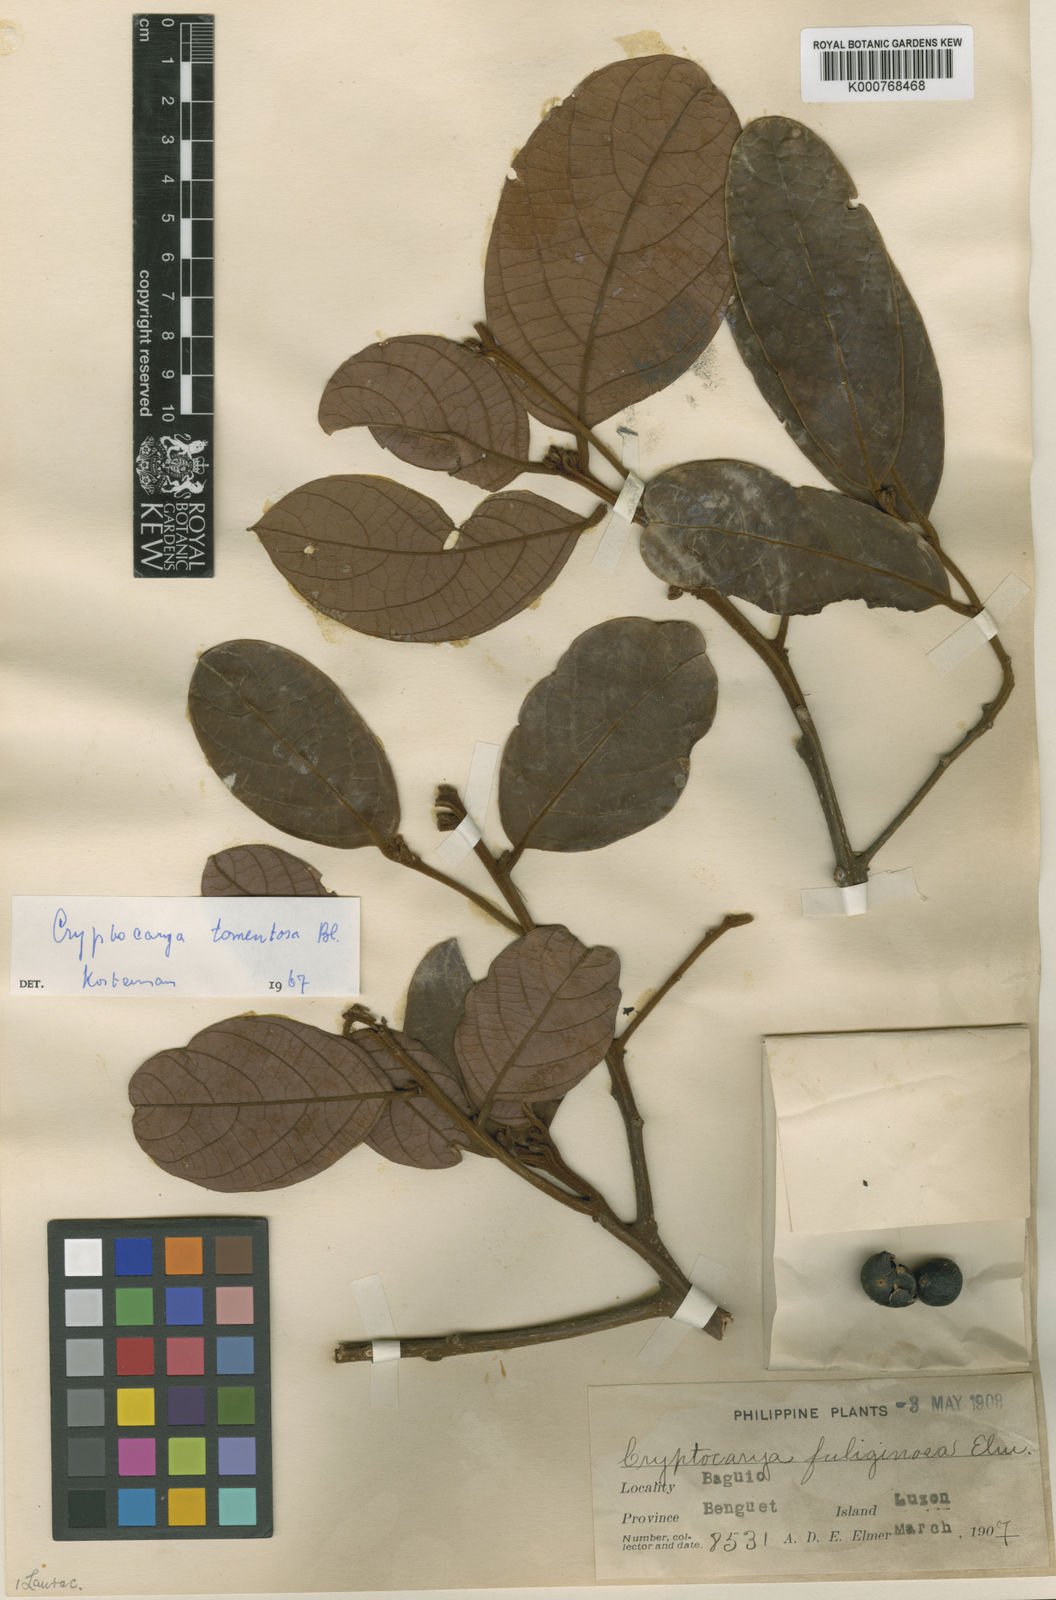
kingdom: Plantae
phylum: Tracheophyta
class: Magnoliopsida
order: Laurales
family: Lauraceae
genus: Cryptocarya
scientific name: Cryptocarya ferrea
